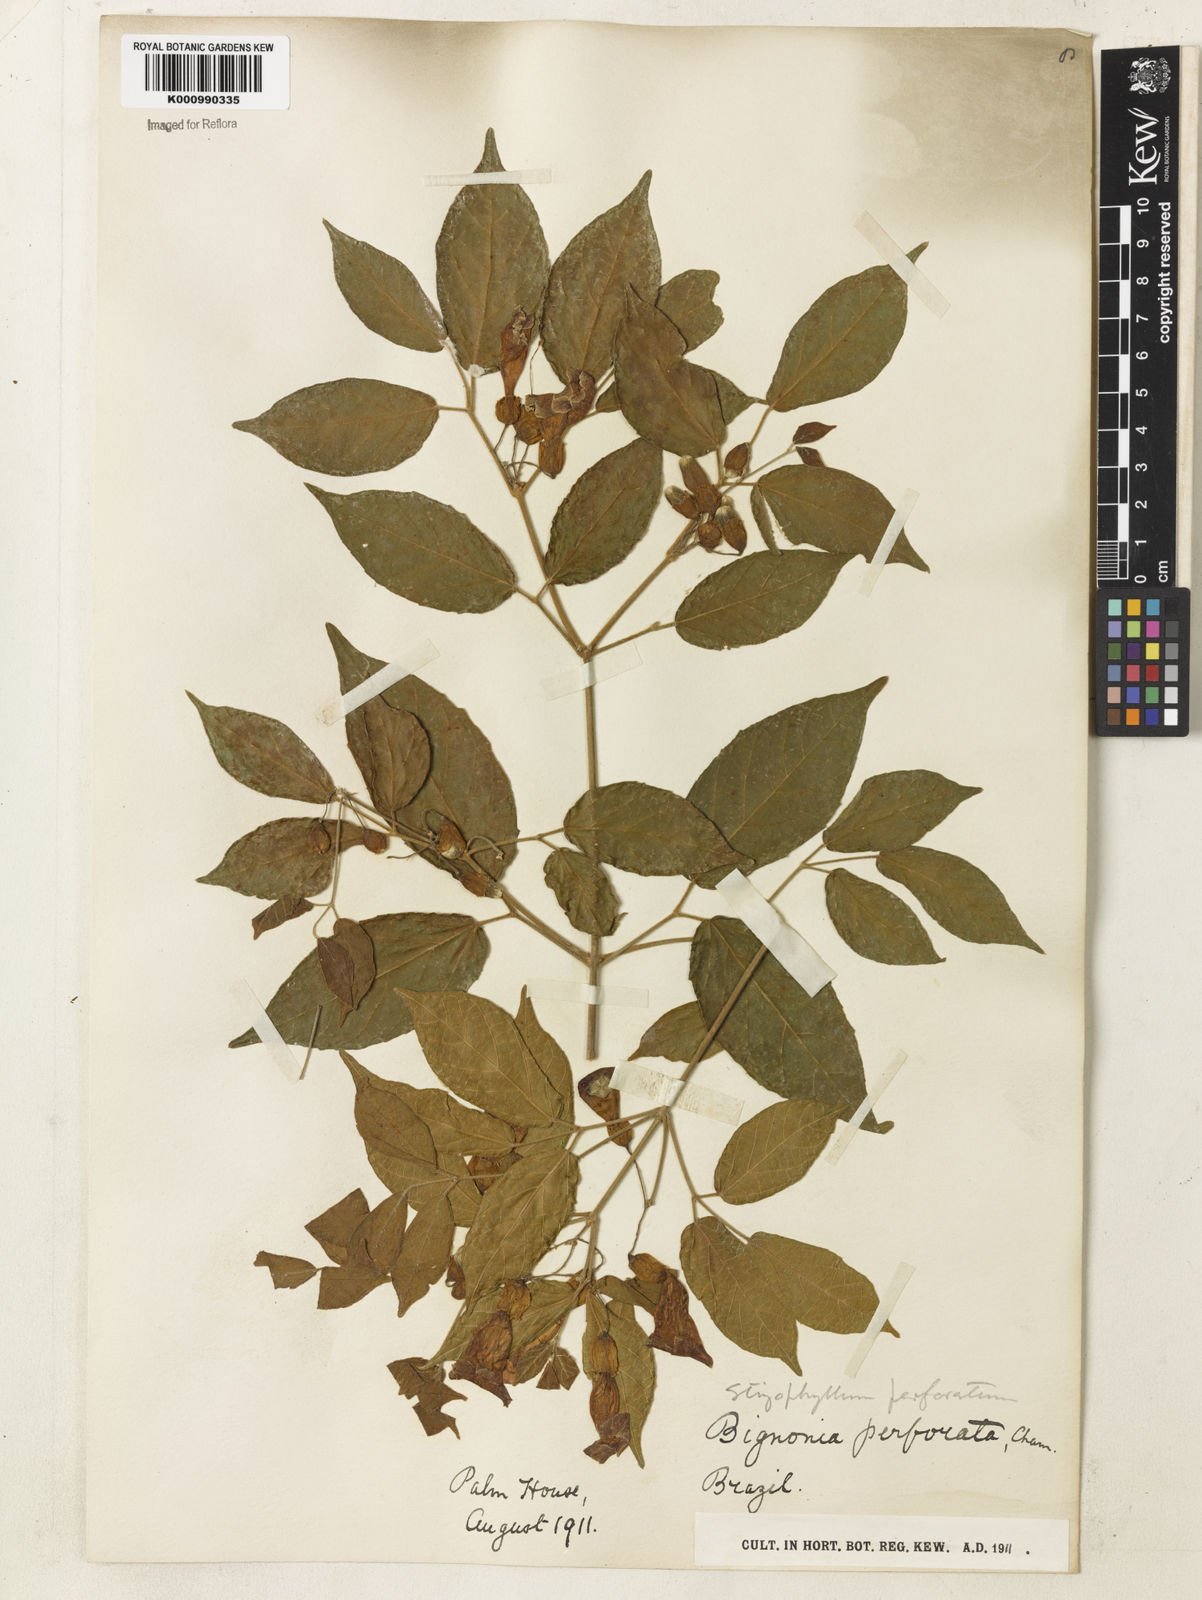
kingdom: Plantae
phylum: Tracheophyta
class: Magnoliopsida
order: Lamiales
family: Bignoniaceae
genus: Stizophyllum
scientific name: Stizophyllum perforatum
